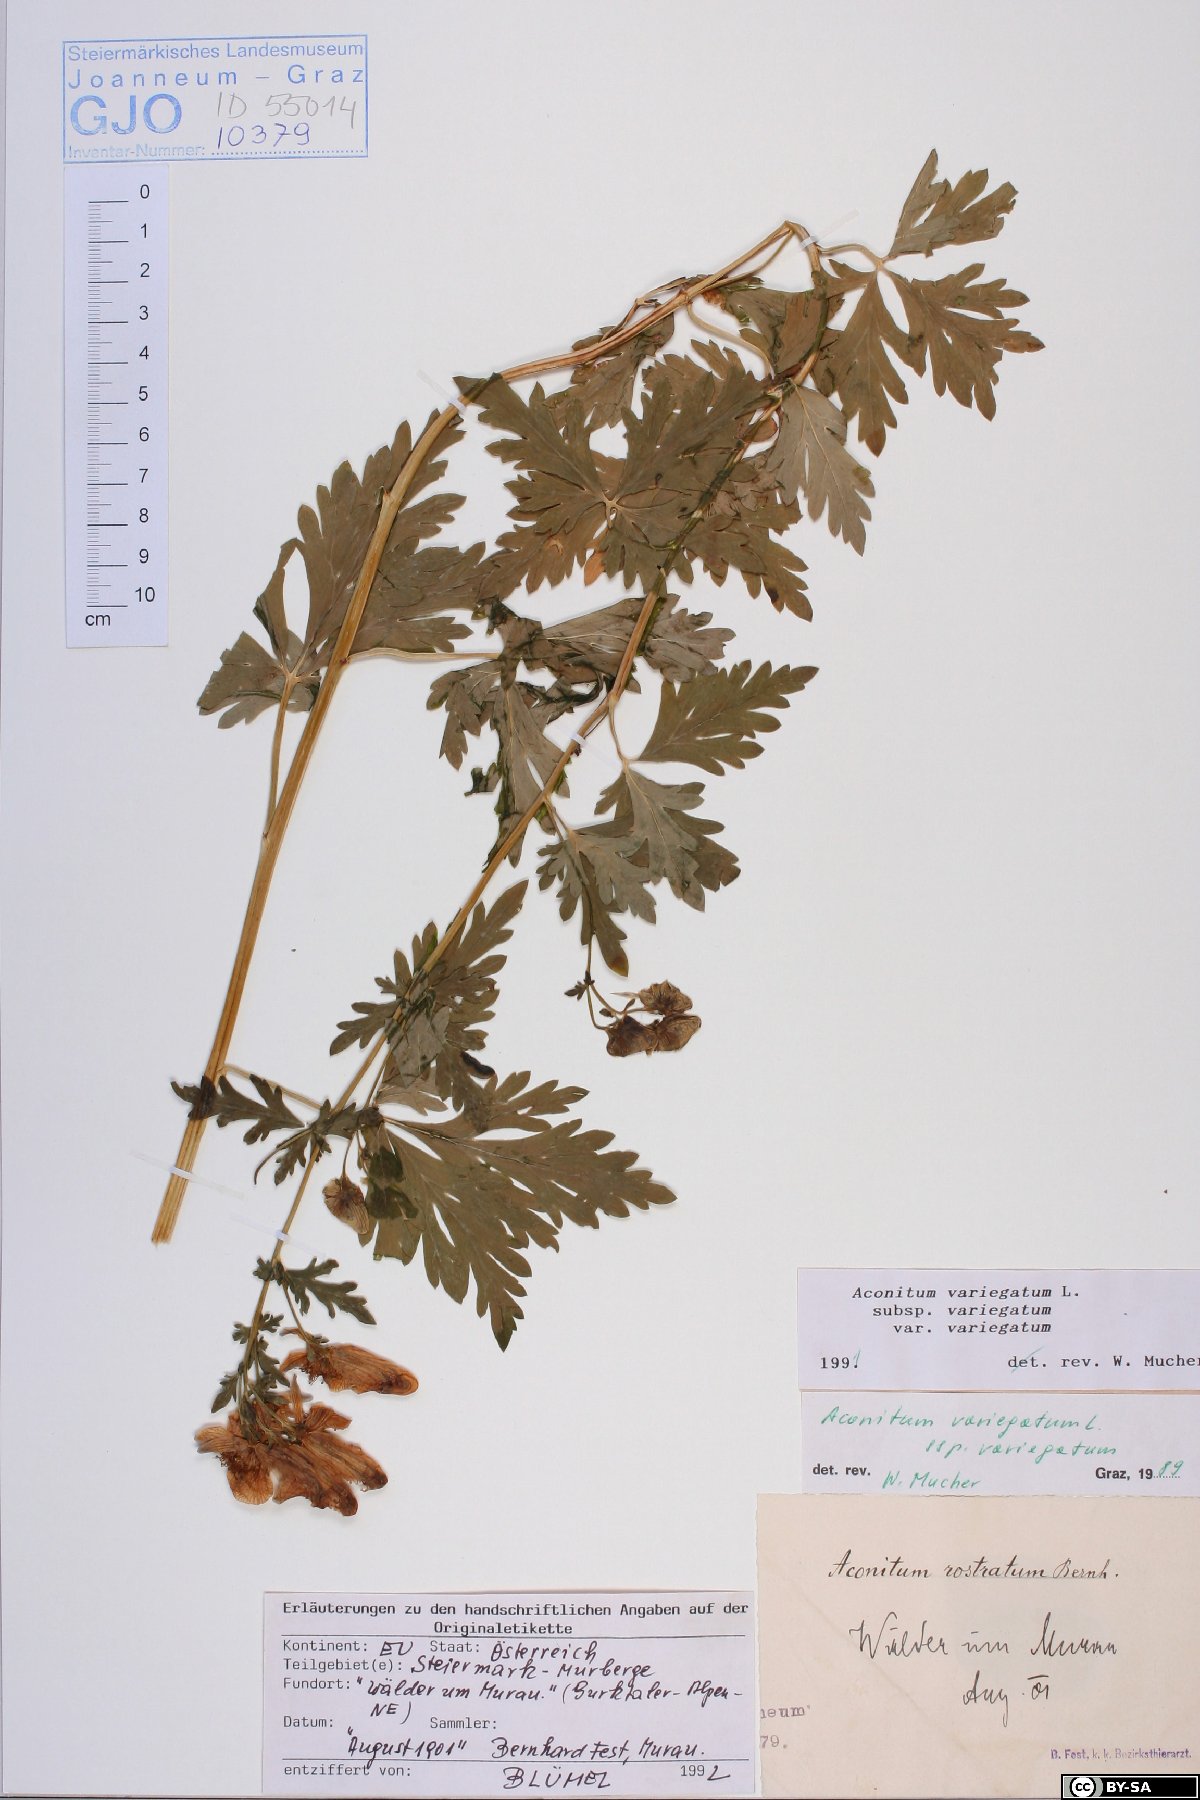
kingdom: Plantae
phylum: Tracheophyta
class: Magnoliopsida
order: Ranunculales
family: Ranunculaceae
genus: Aconitum
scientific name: Aconitum variegatum
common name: Manchurian monkshood
